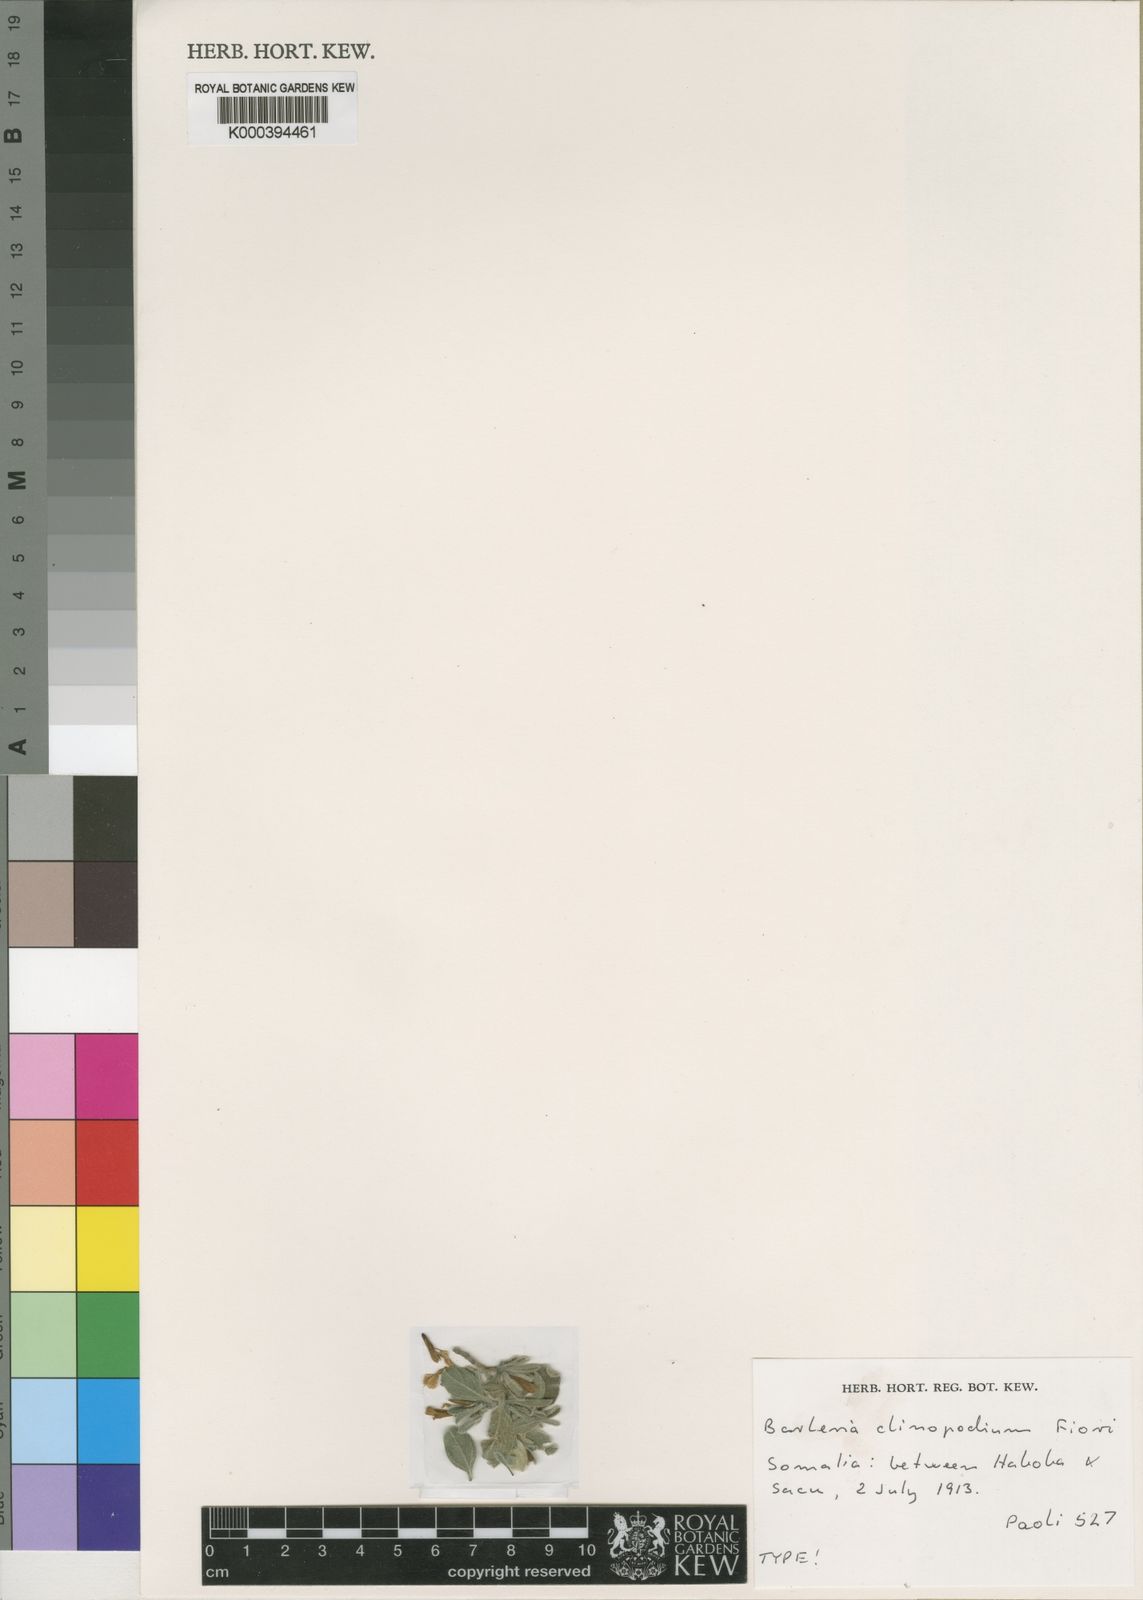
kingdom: Plantae
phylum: Tracheophyta
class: Magnoliopsida
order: Lamiales
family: Acanthaceae
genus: Barleria
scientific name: Barleria clinopodium
